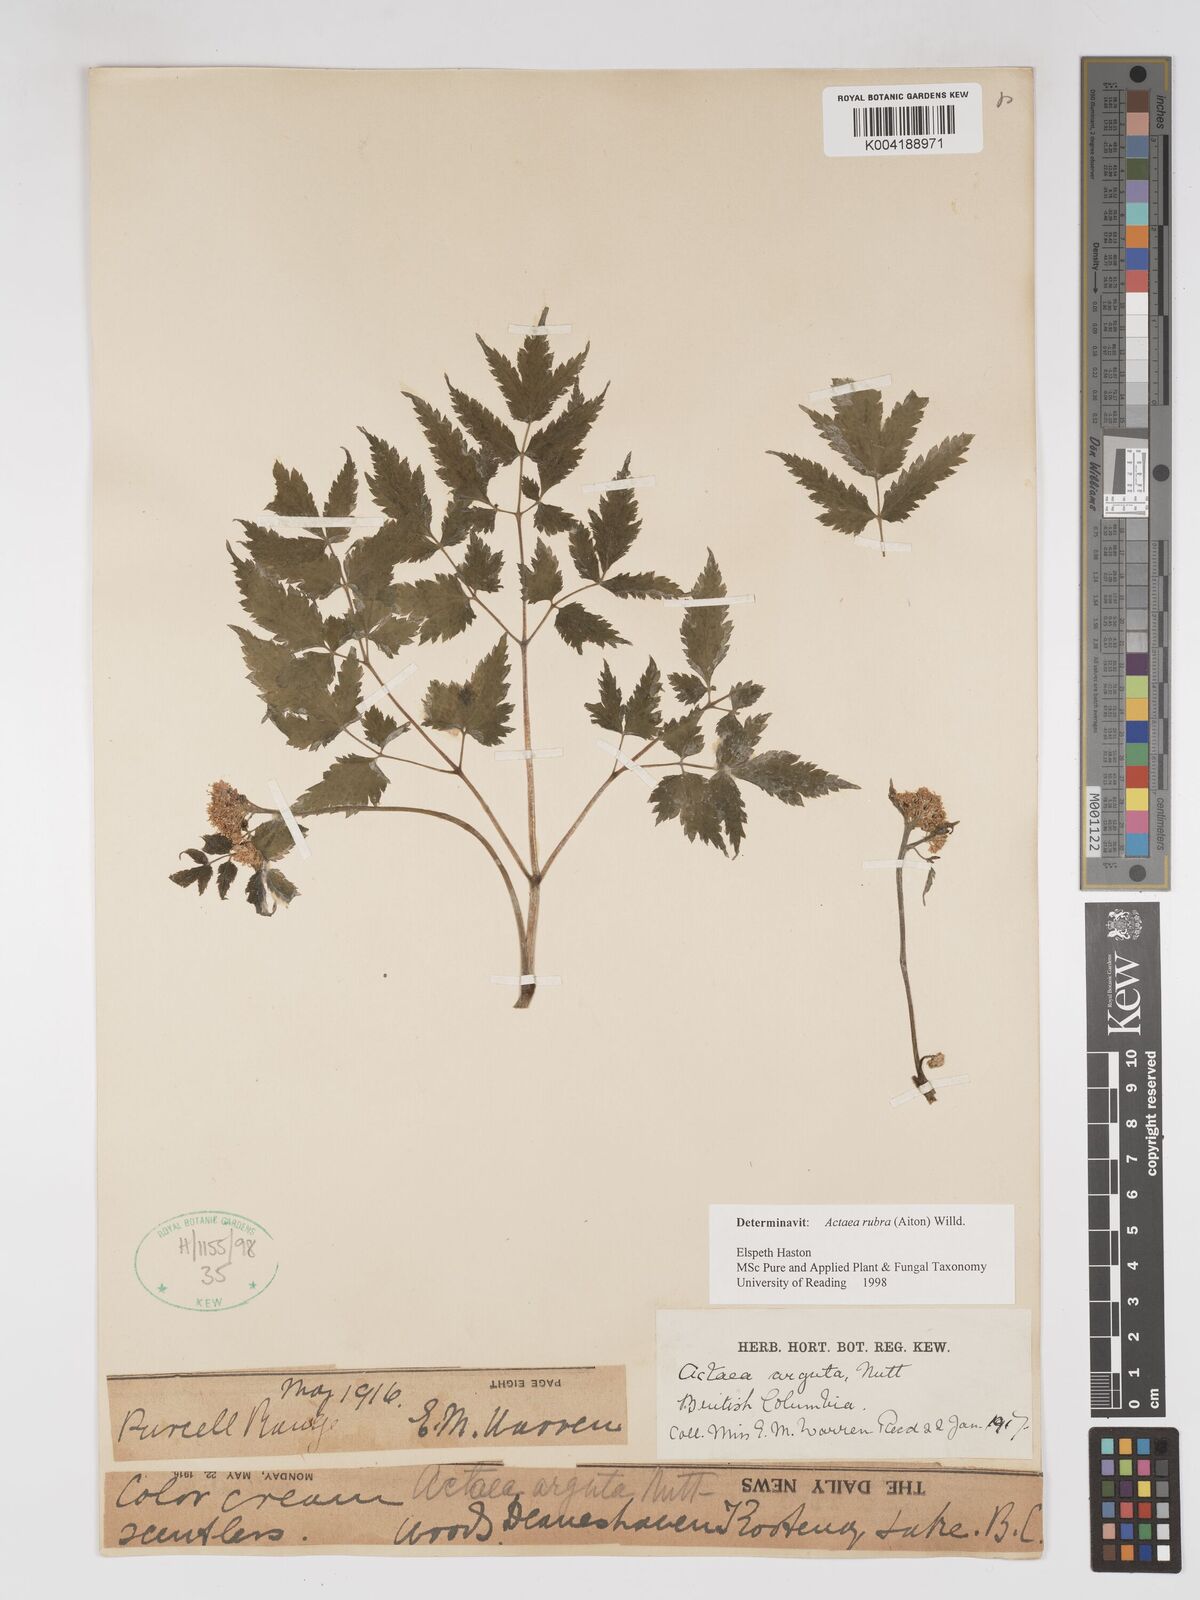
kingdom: Plantae
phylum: Tracheophyta
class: Magnoliopsida
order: Ranunculales
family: Ranunculaceae
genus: Actaea
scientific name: Actaea rubra
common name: Red baneberry
